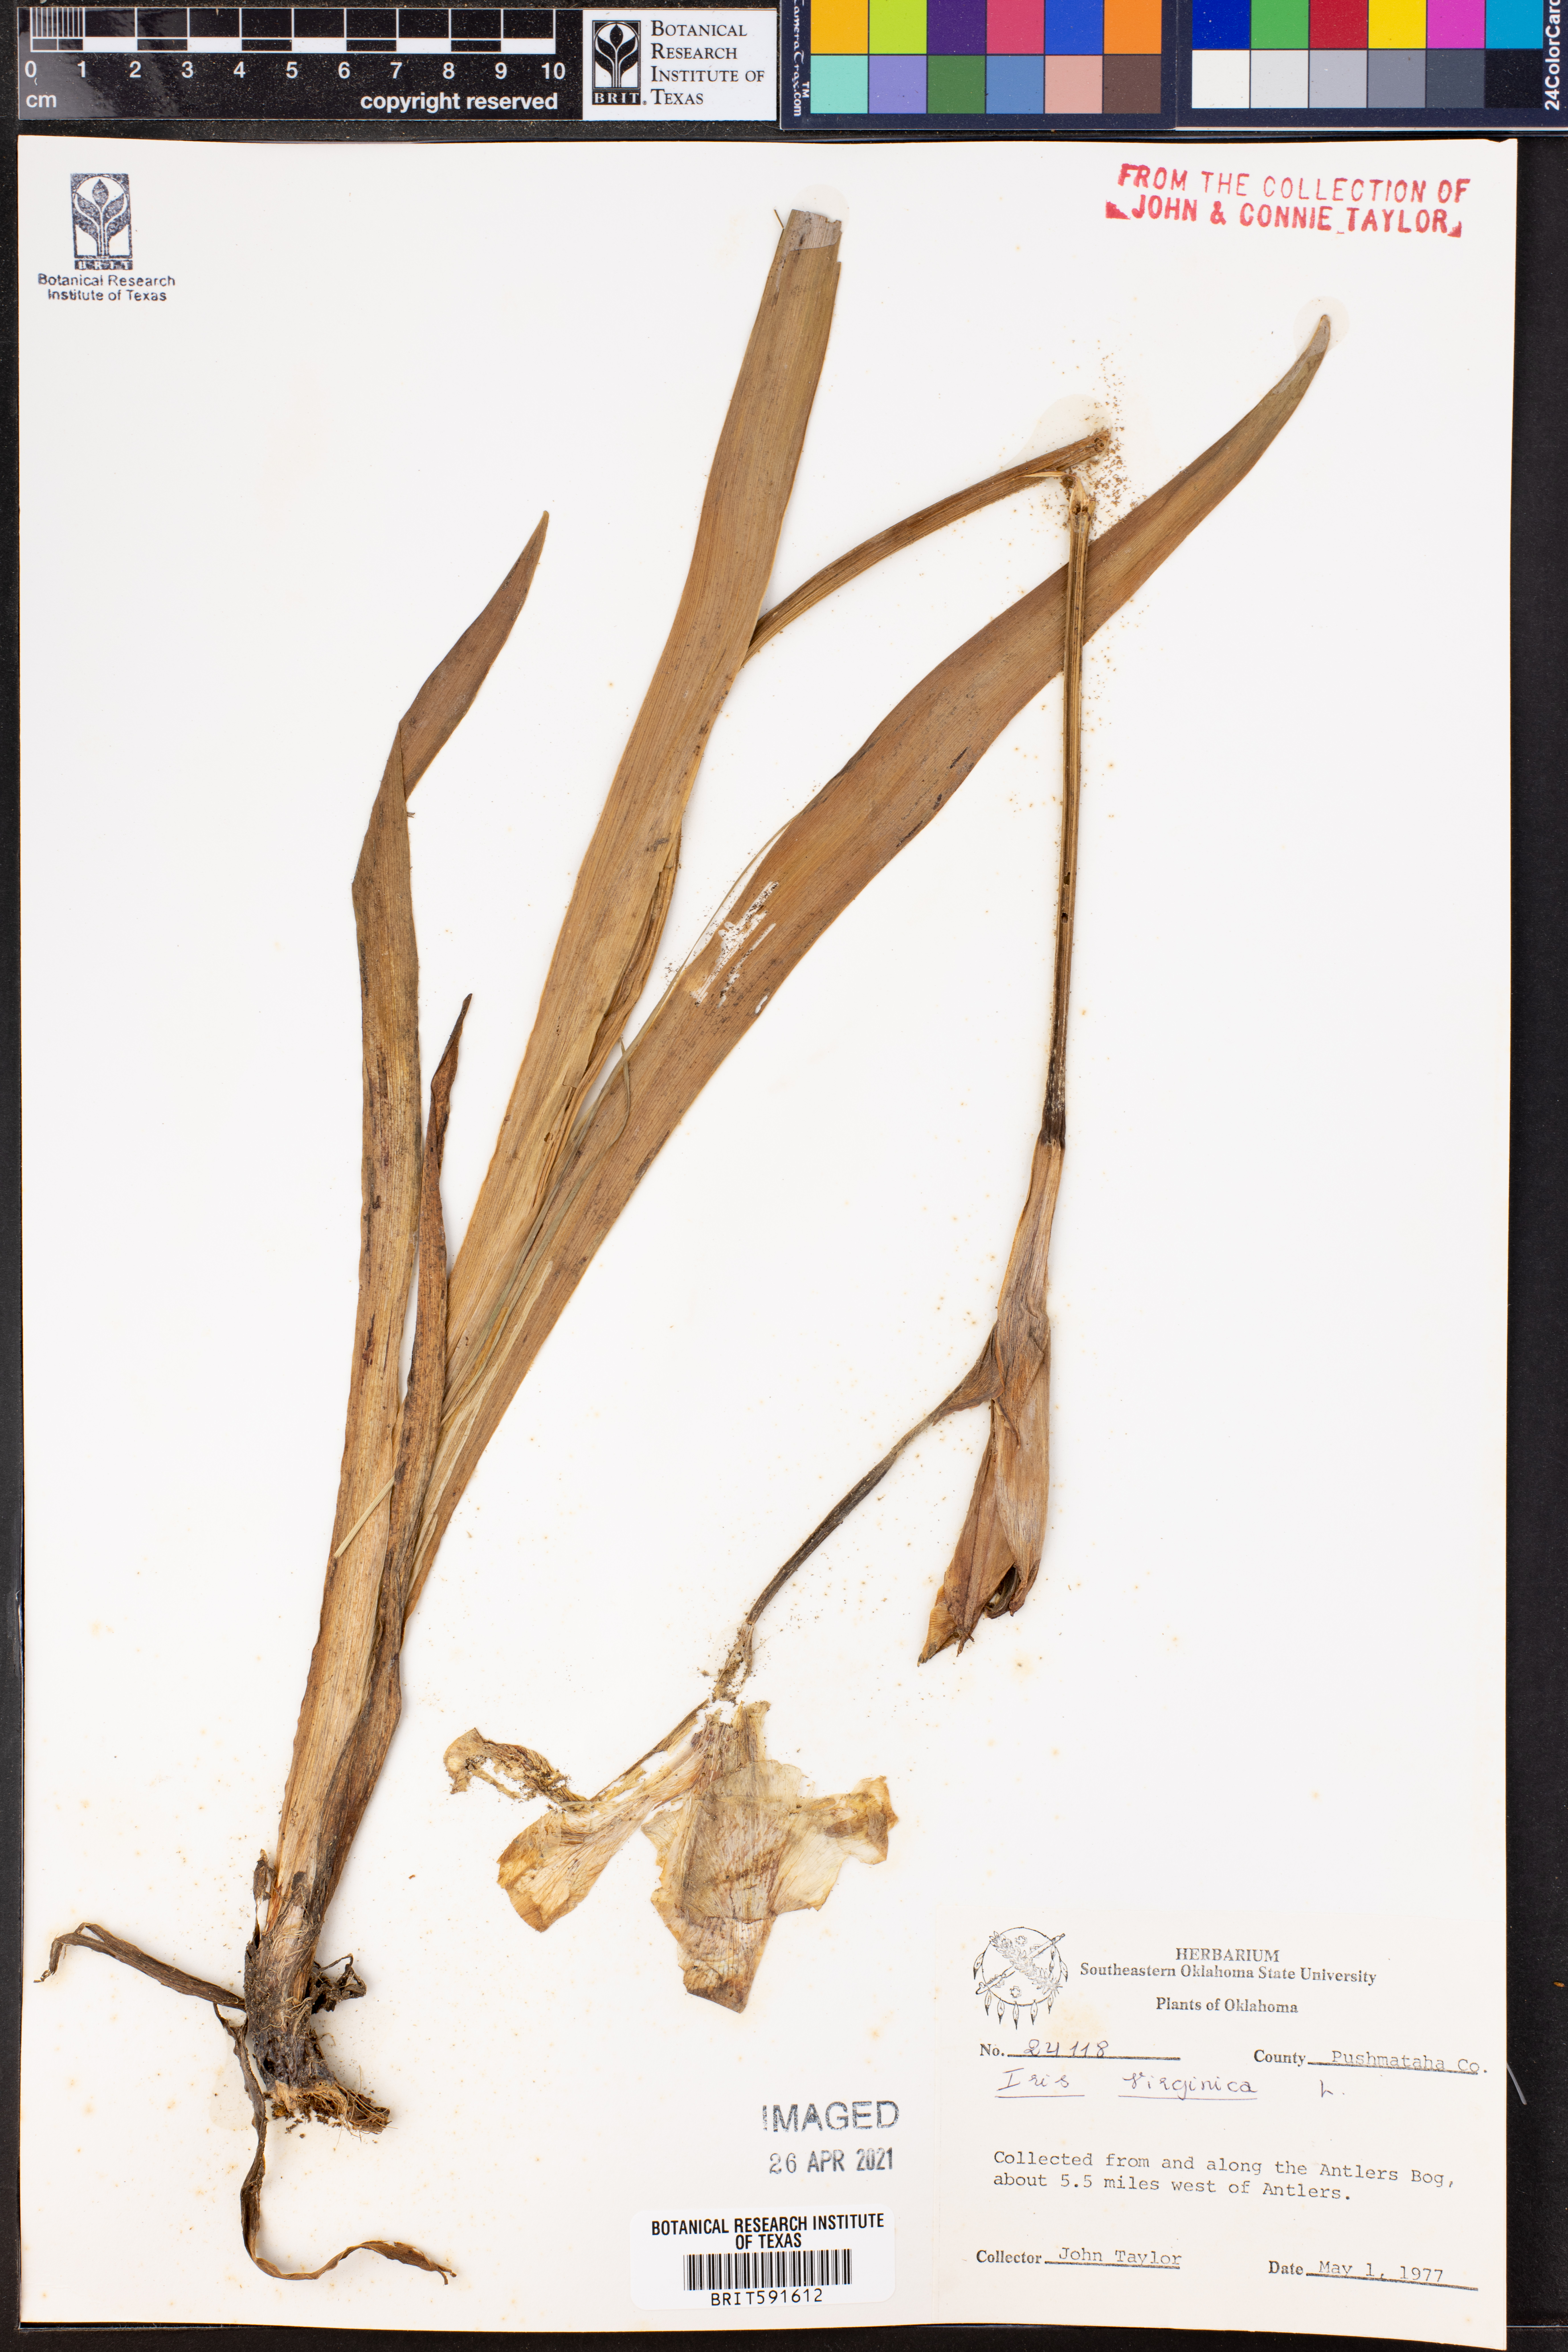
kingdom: Plantae
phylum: Tracheophyta
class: Liliopsida
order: Asparagales
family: Iridaceae
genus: Iris
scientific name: Iris virginica
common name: Southern blue flag
